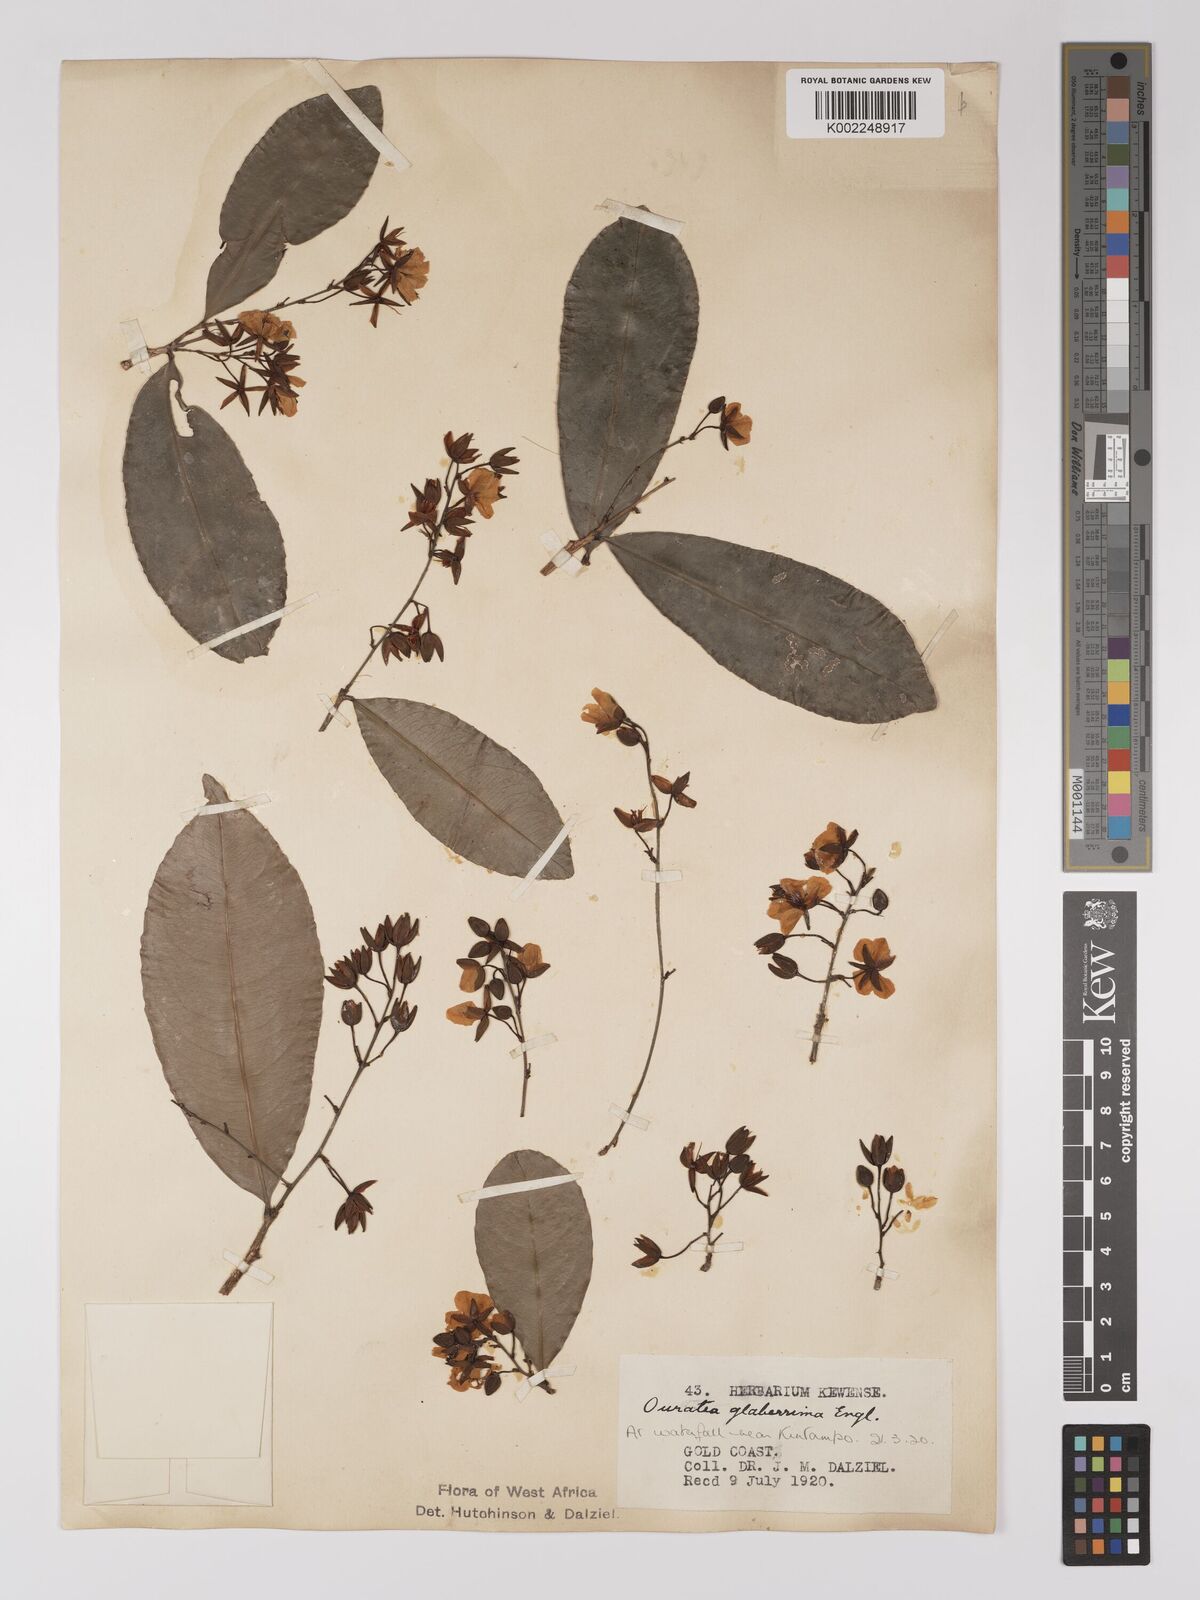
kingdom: Plantae
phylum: Tracheophyta
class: Magnoliopsida
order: Malpighiales
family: Ochnaceae
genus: Campylospermum
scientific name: Campylospermum glaberrimum
